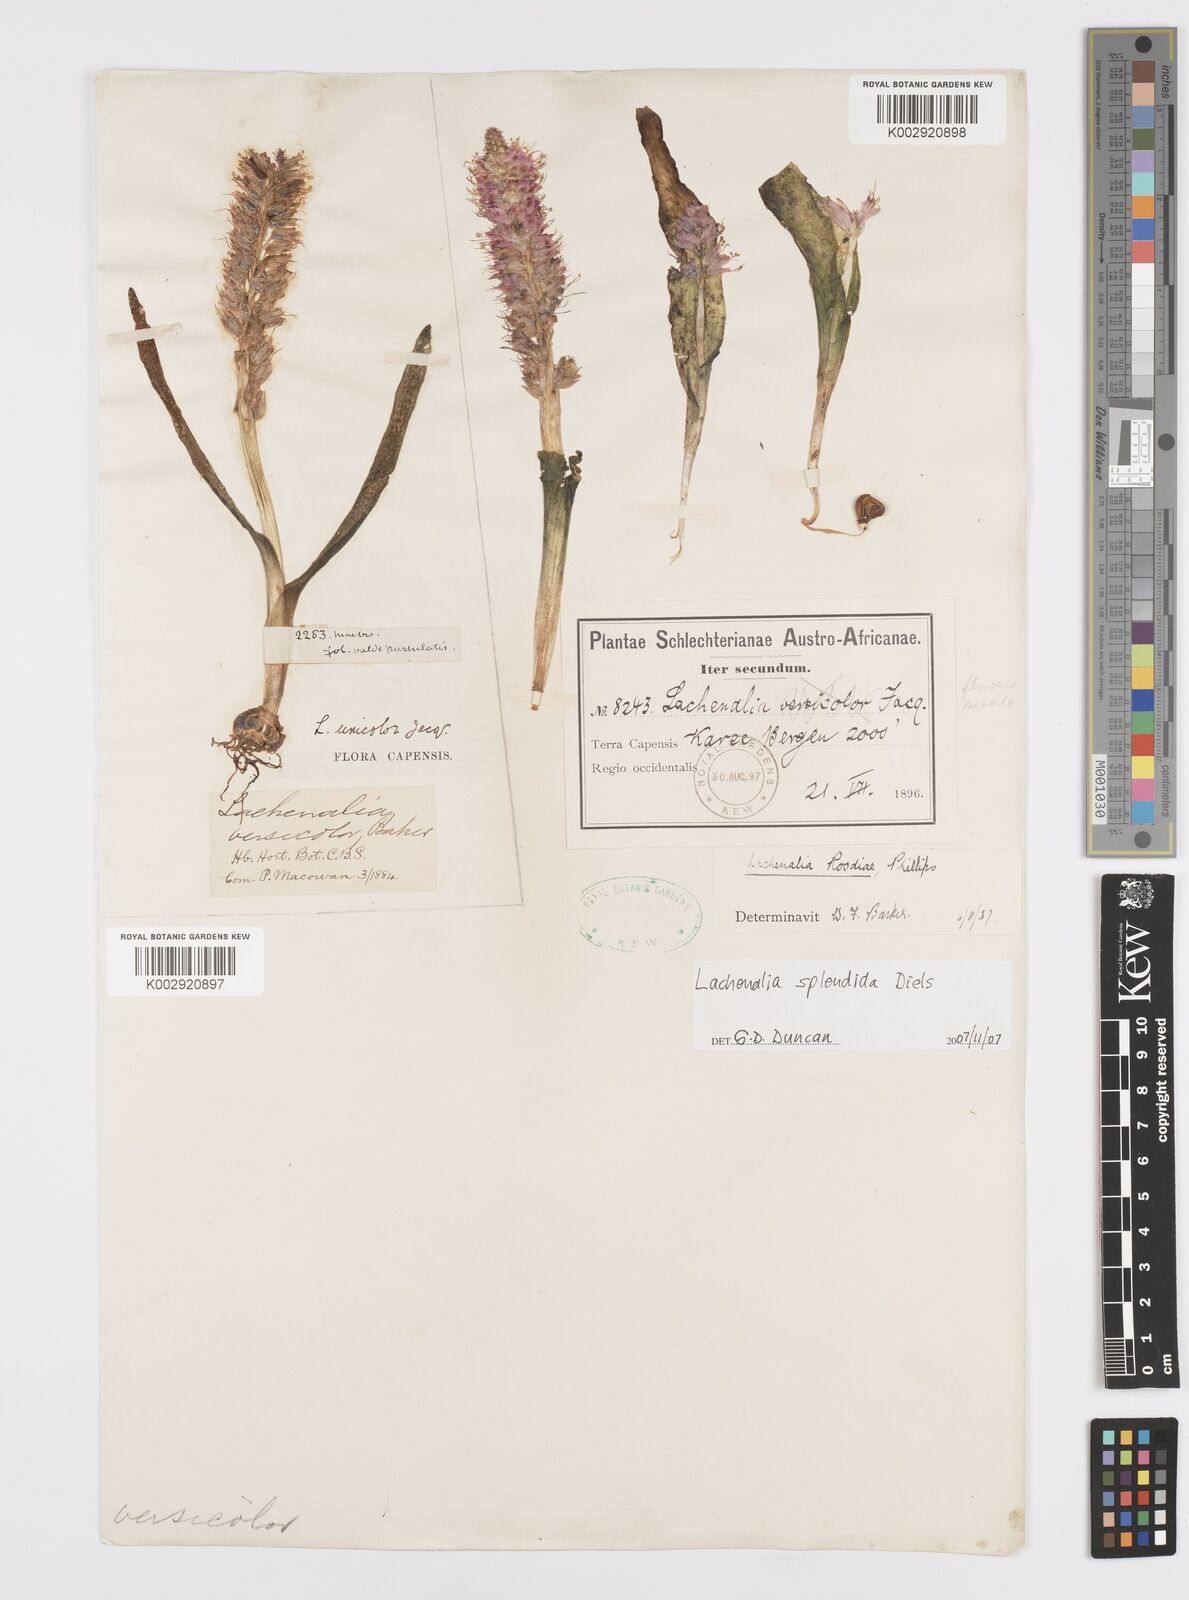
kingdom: Plantae
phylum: Tracheophyta
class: Liliopsida
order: Asparagales
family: Asparagaceae
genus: Lachenalia
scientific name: Lachenalia splendida
